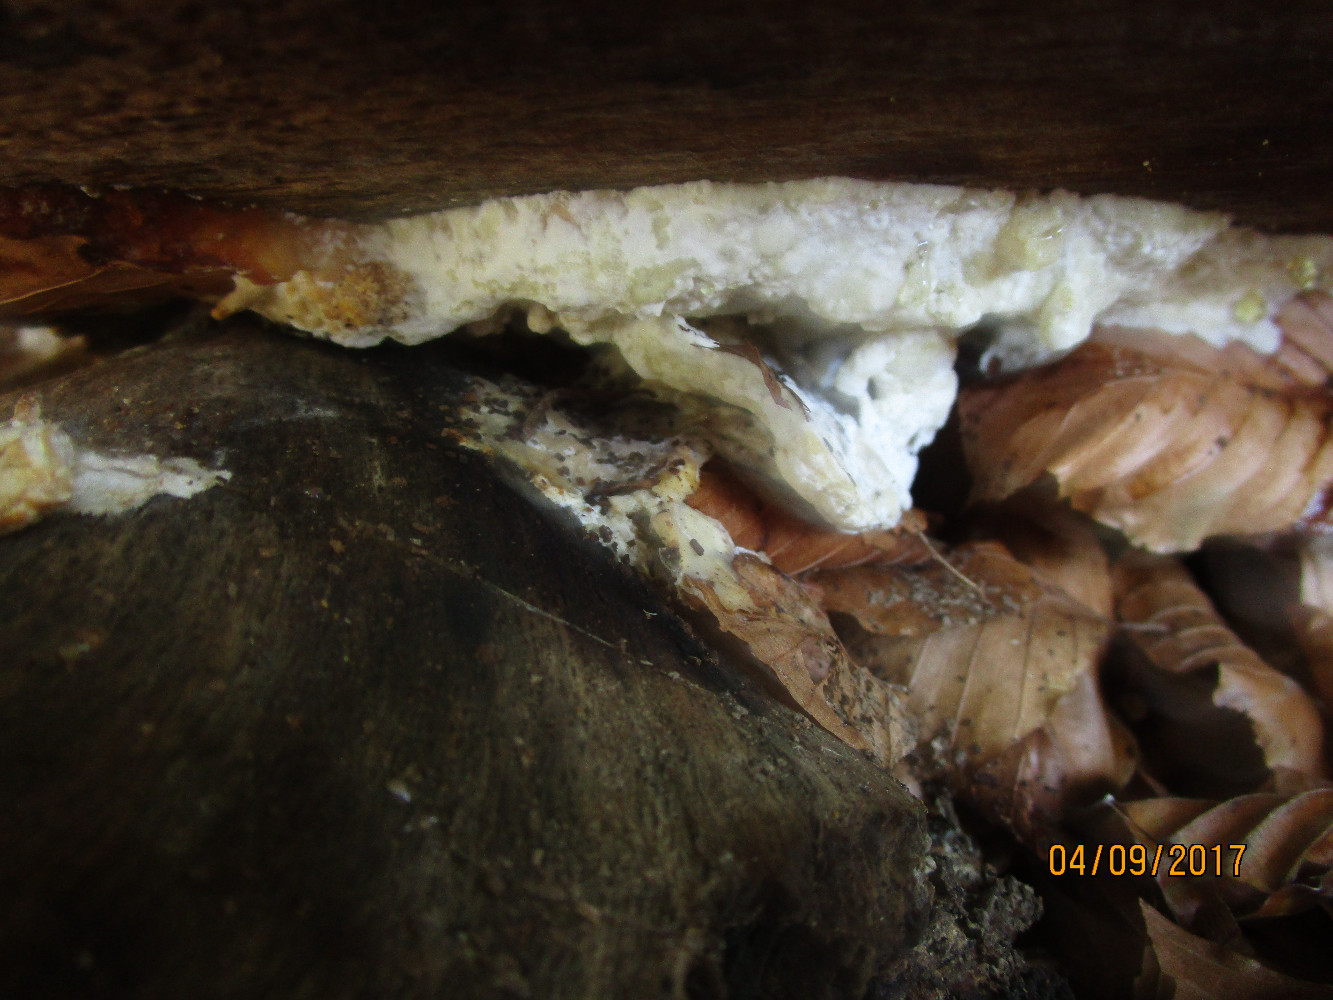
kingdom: Fungi
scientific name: Fungi
